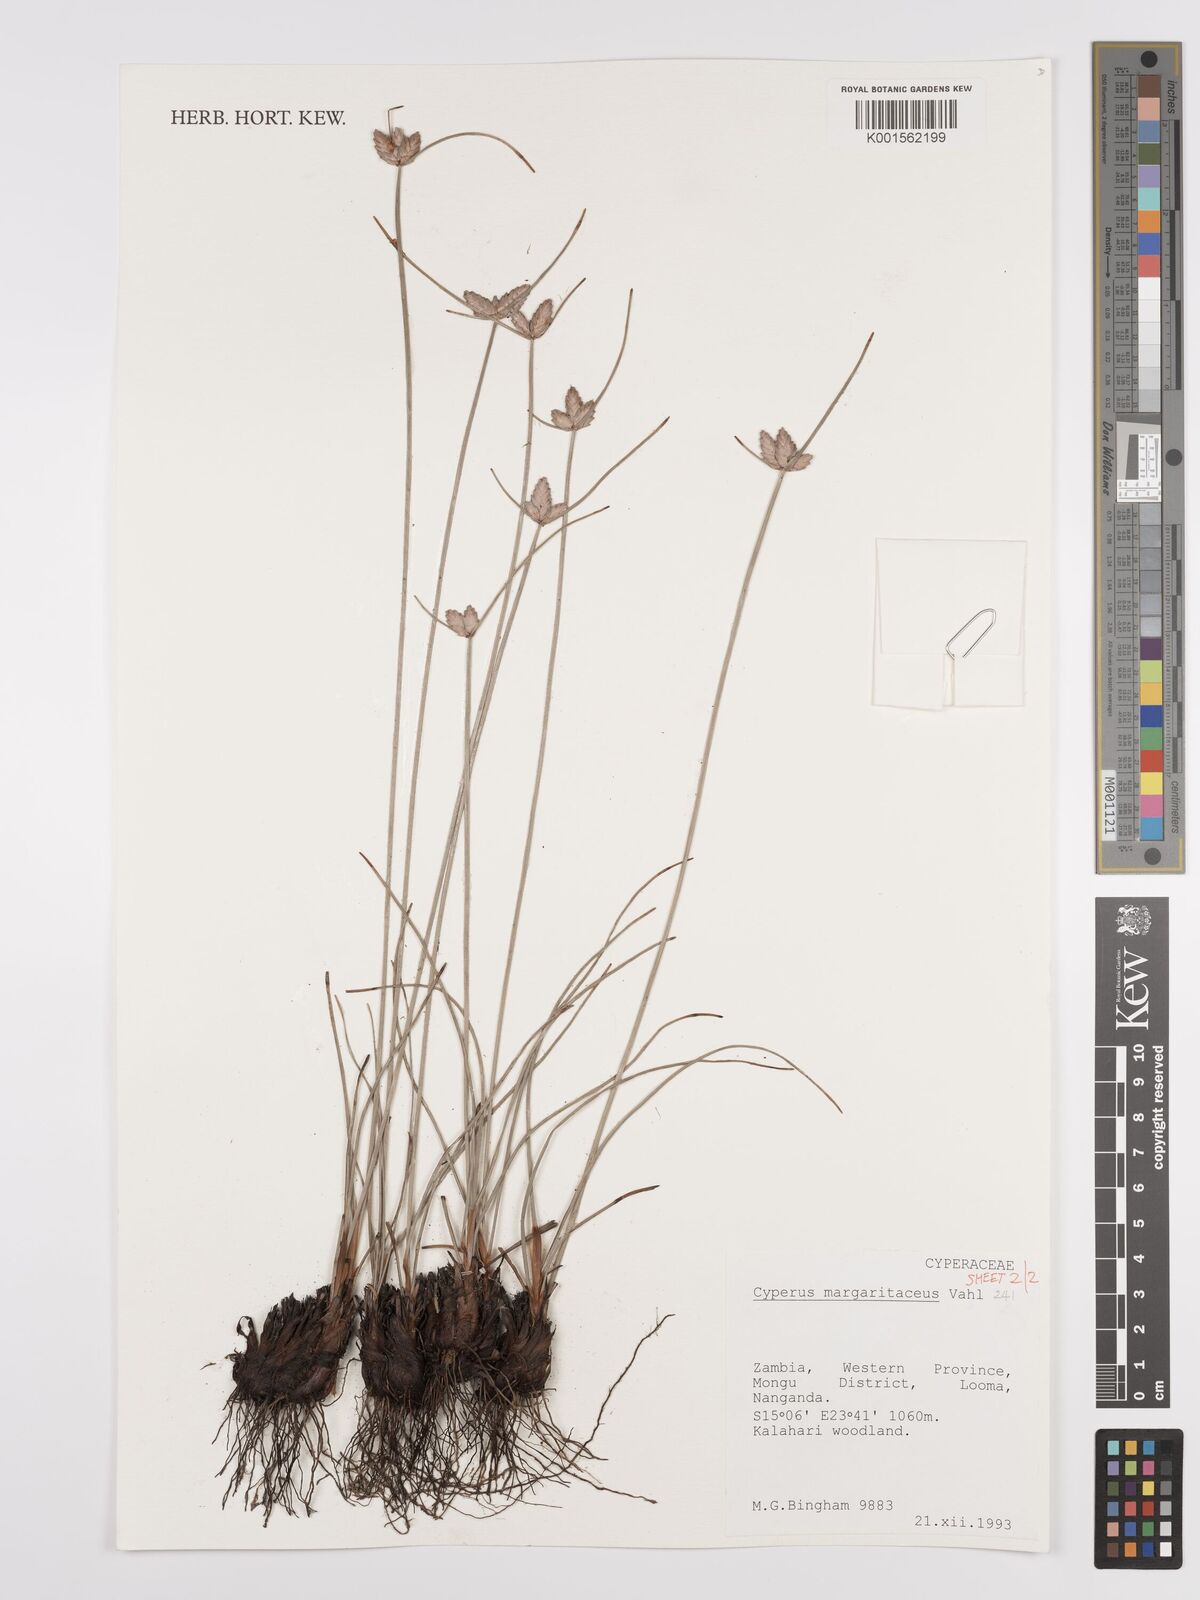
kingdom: Plantae
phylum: Tracheophyta
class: Liliopsida
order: Poales
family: Cyperaceae
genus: Cyperus
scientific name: Cyperus margaritaceus
